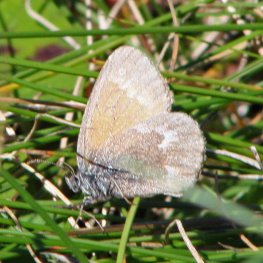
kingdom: Animalia
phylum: Arthropoda
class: Insecta
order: Lepidoptera
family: Nymphalidae
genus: Coenonympha
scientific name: Coenonympha tullia
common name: Large Heath
